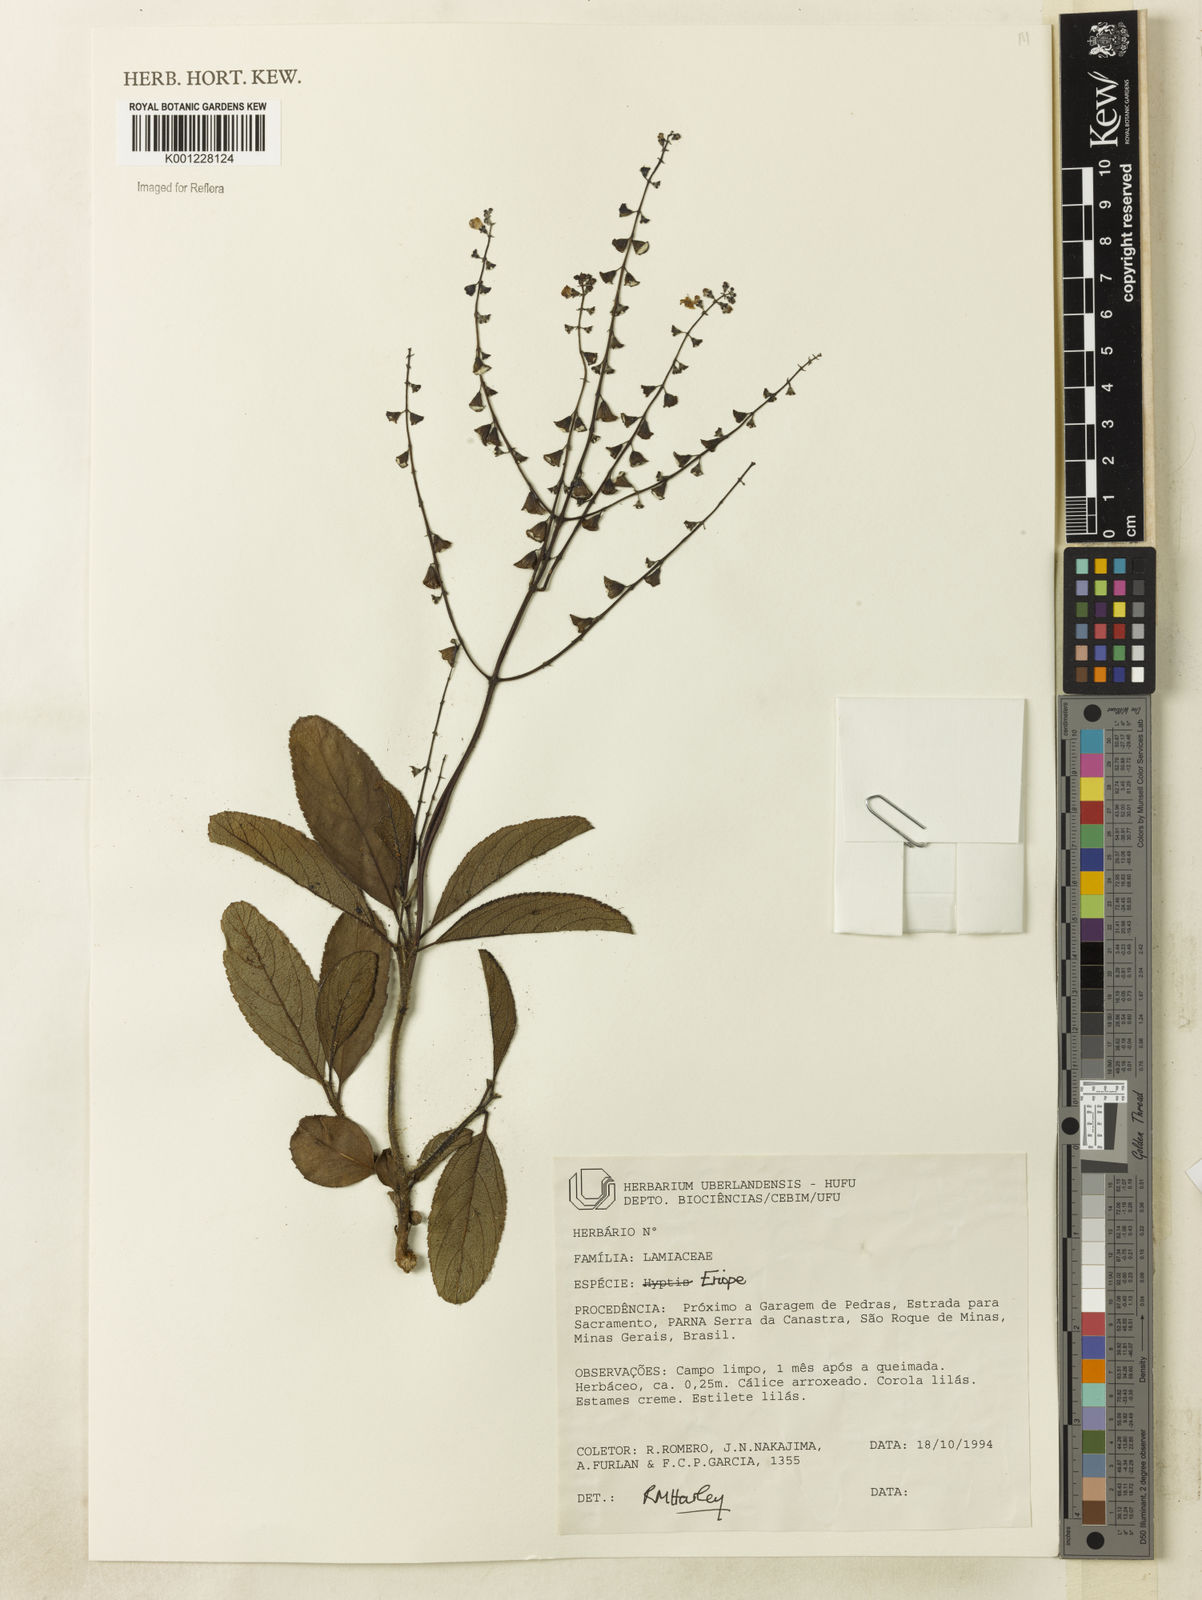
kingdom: Plantae
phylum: Tracheophyta
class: Magnoliopsida
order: Lamiales
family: Lamiaceae
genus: Eriope
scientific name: Eriope
